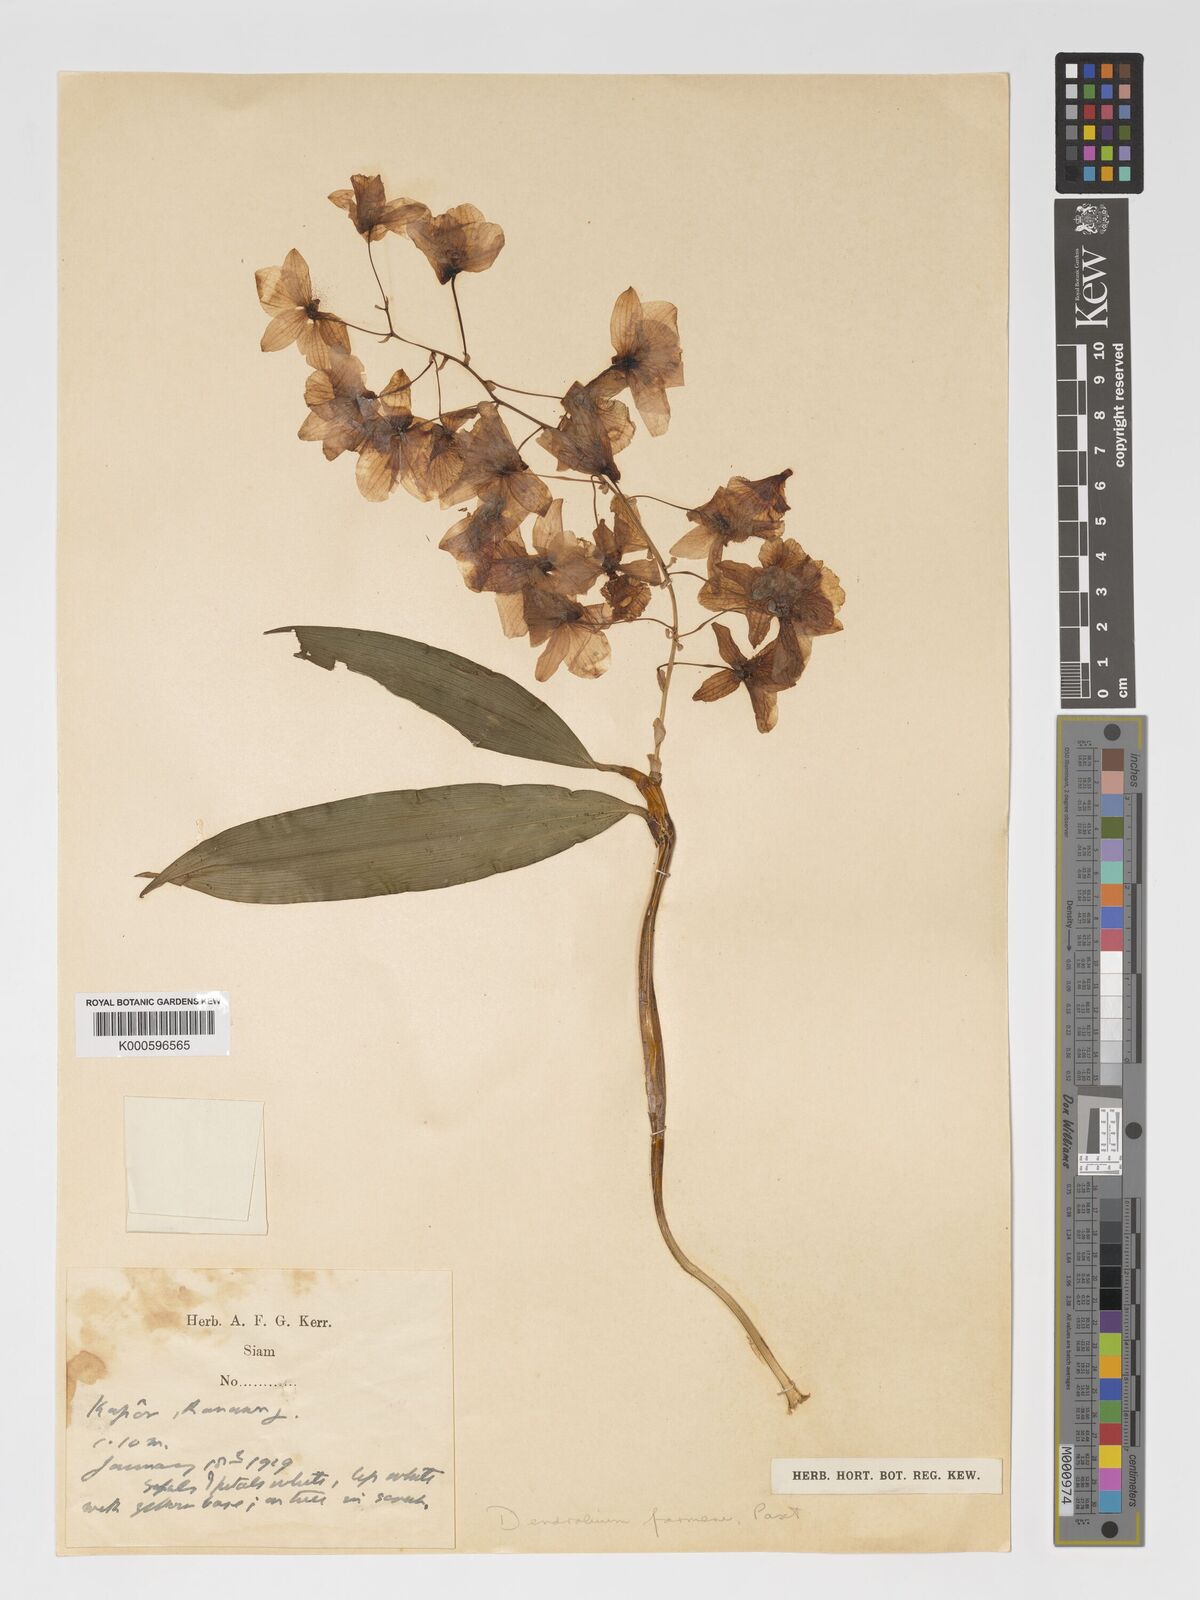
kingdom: Plantae
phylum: Tracheophyta
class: Liliopsida
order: Asparagales
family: Orchidaceae
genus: Dendrobium
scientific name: Dendrobium farmeri
